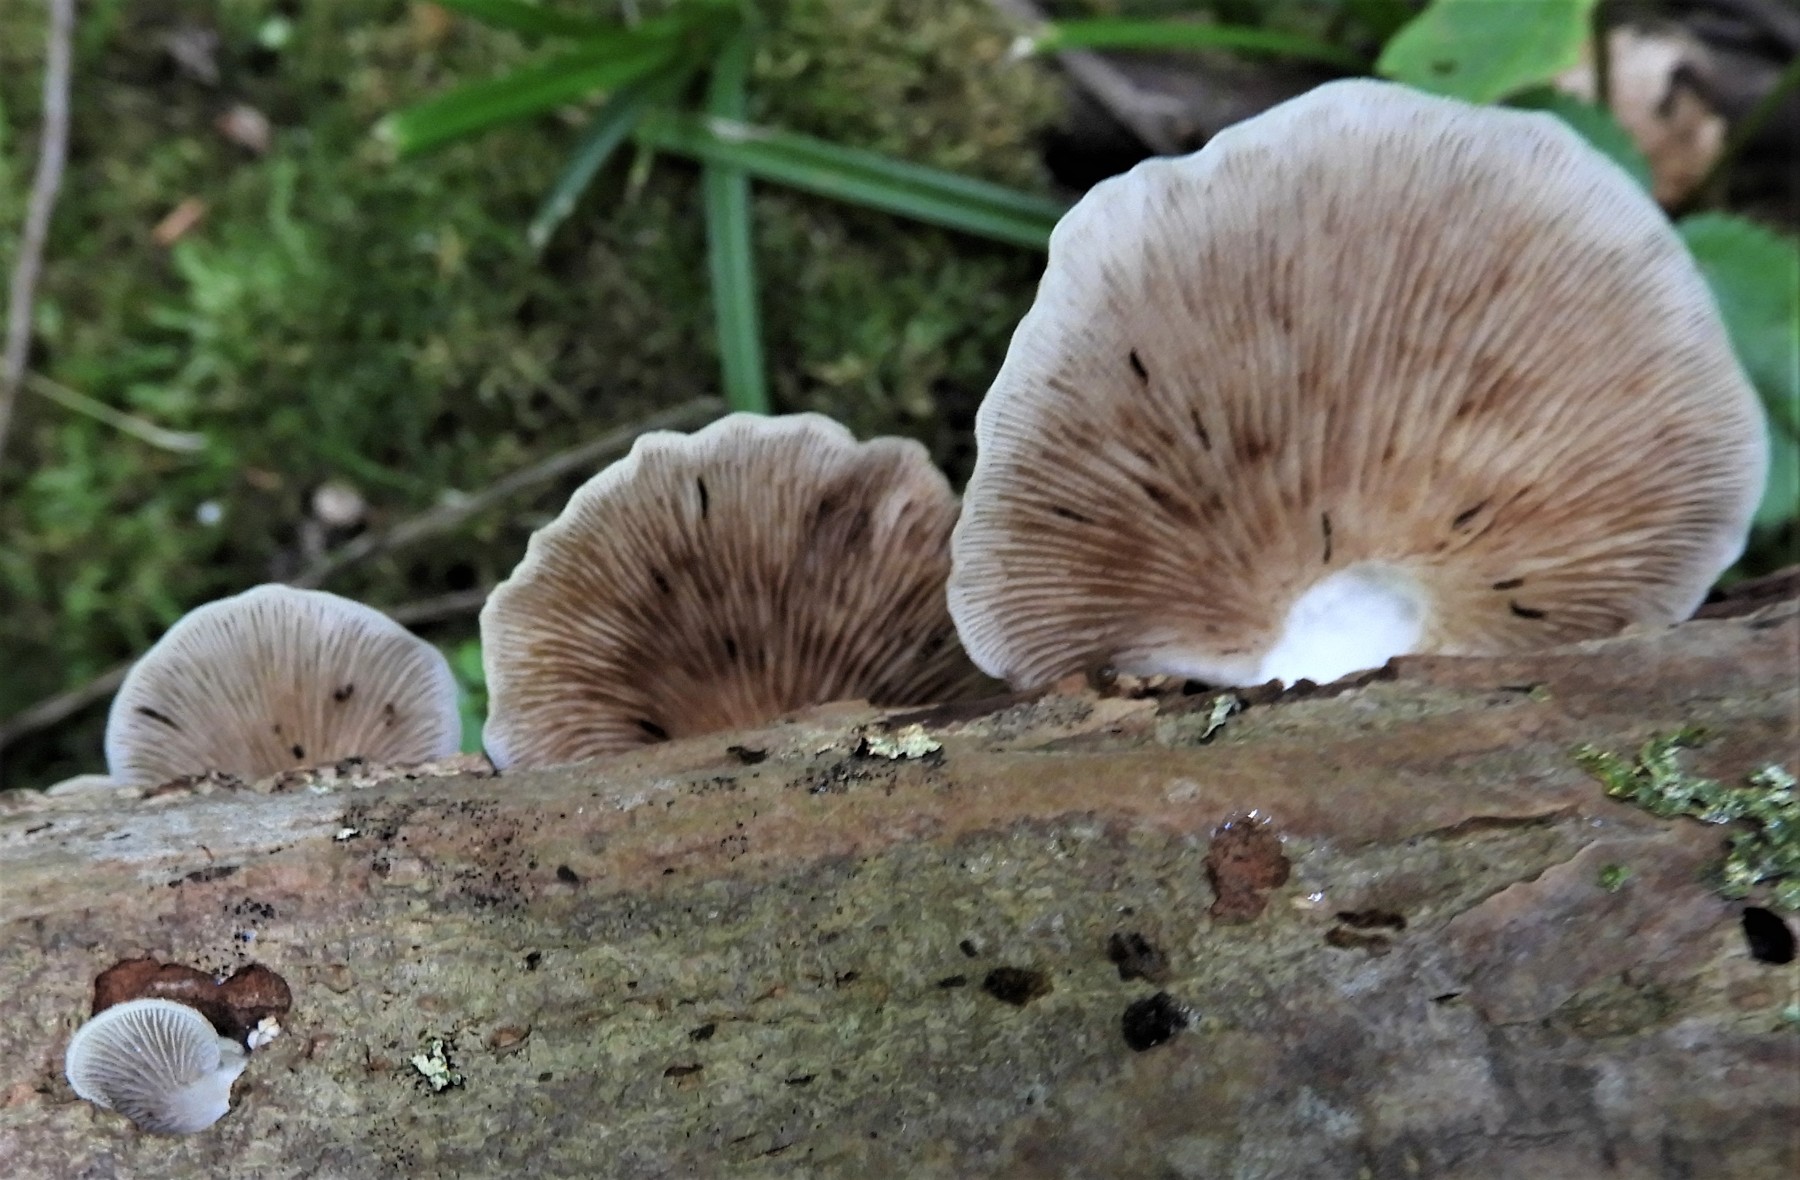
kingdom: Fungi
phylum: Basidiomycota
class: Agaricomycetes
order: Agaricales
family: Crepidotaceae
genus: Crepidotus
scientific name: Crepidotus mollis
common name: blød muslingesvamp
